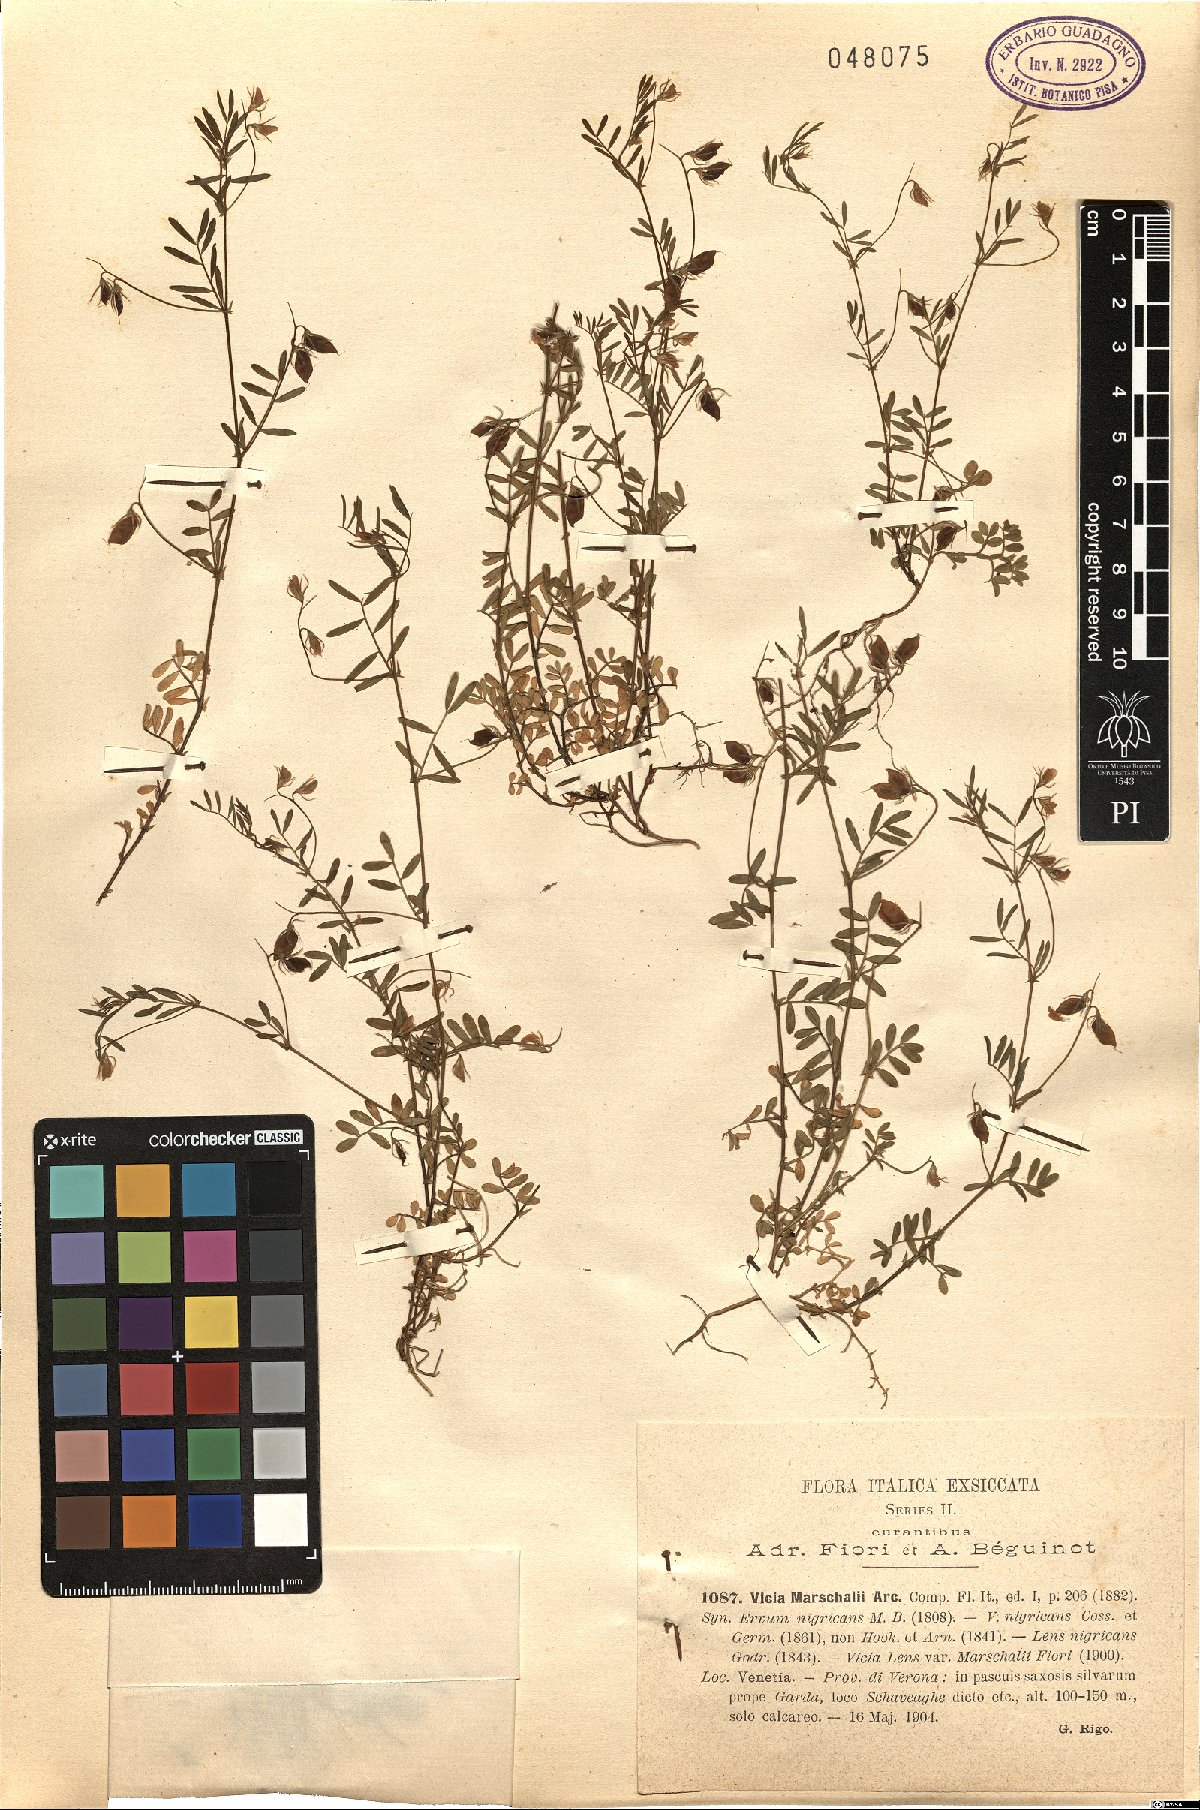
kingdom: Plantae
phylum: Tracheophyta
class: Magnoliopsida
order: Fabales
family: Fabaceae
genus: Vicia
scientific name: Vicia lentoides
